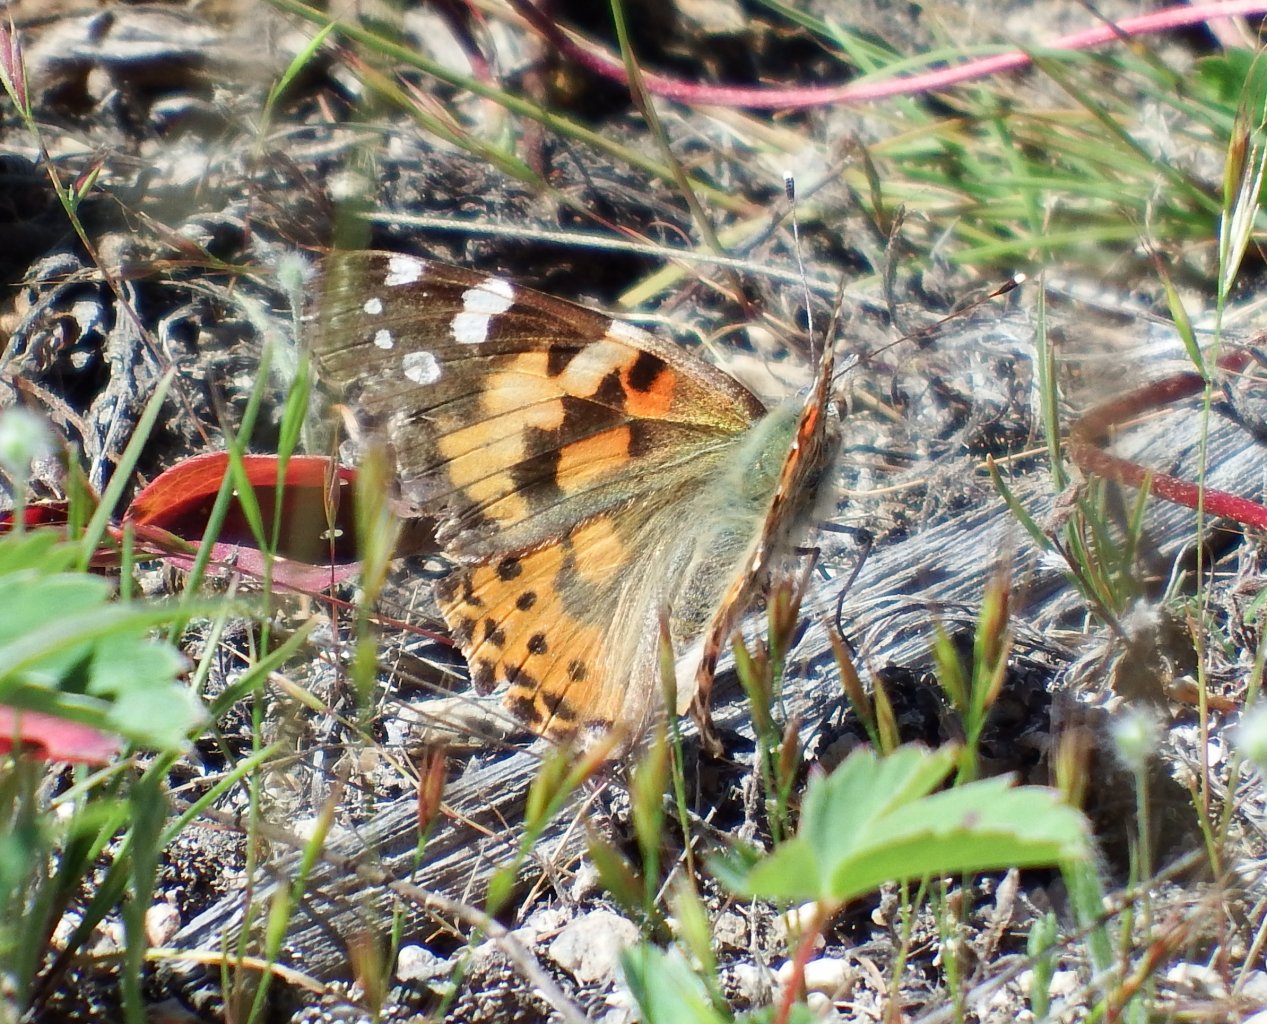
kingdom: Animalia
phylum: Arthropoda
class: Insecta
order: Lepidoptera
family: Nymphalidae
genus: Vanessa
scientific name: Vanessa cardui
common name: Painted Lady
